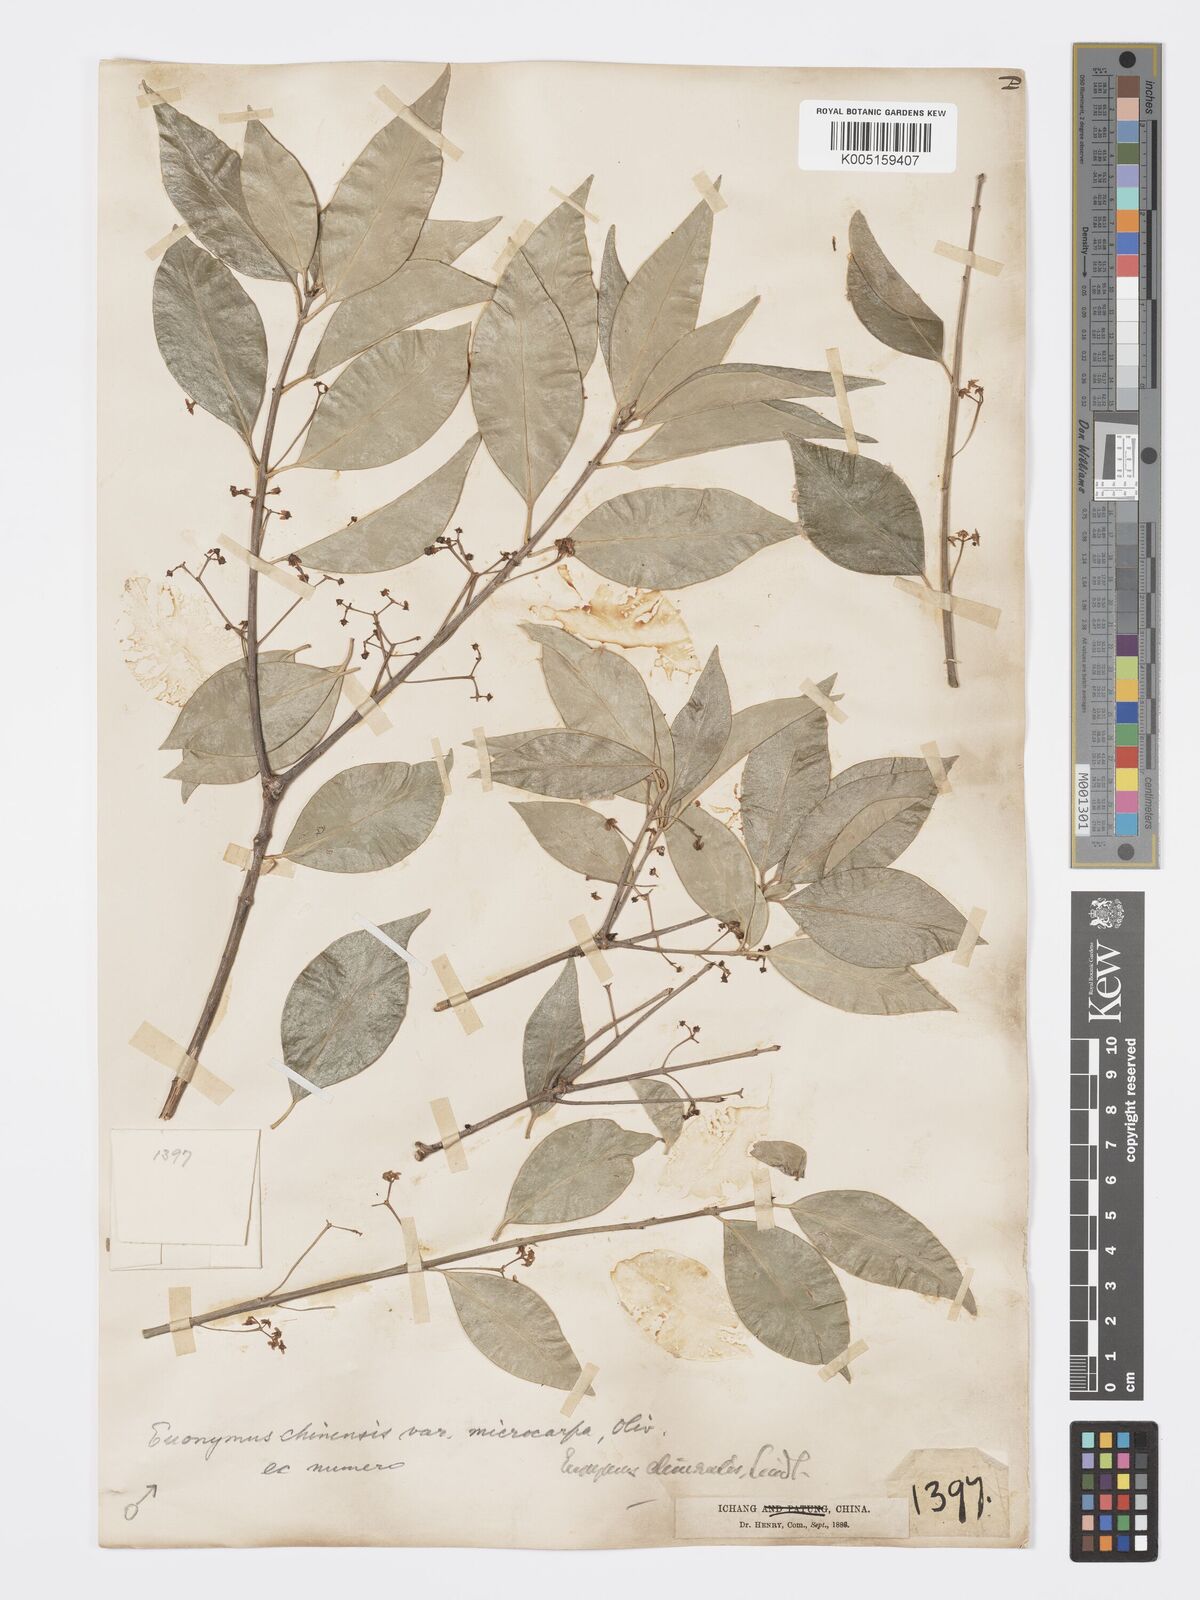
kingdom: Plantae
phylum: Tracheophyta
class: Magnoliopsida
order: Celastrales
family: Celastraceae
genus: Euonymus
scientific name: Euonymus
